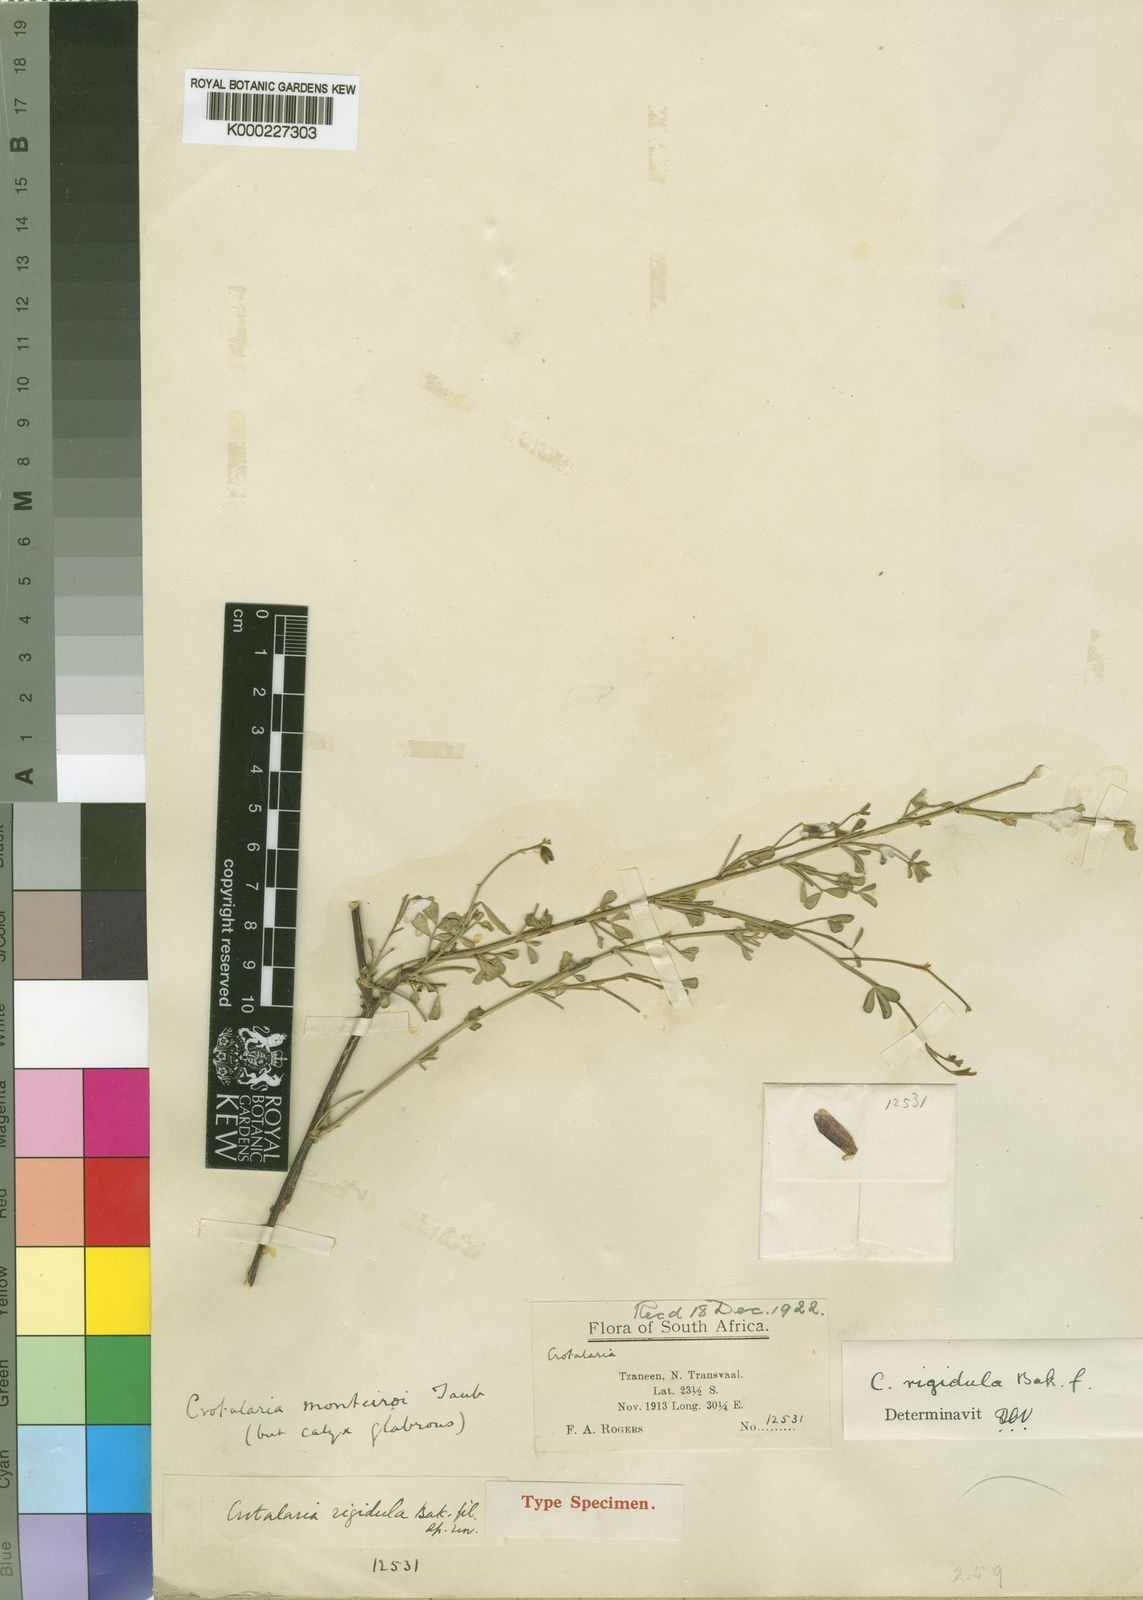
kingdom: Plantae
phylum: Tracheophyta
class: Magnoliopsida
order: Fabales
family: Fabaceae
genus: Crotalaria
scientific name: Crotalaria monteiroi
